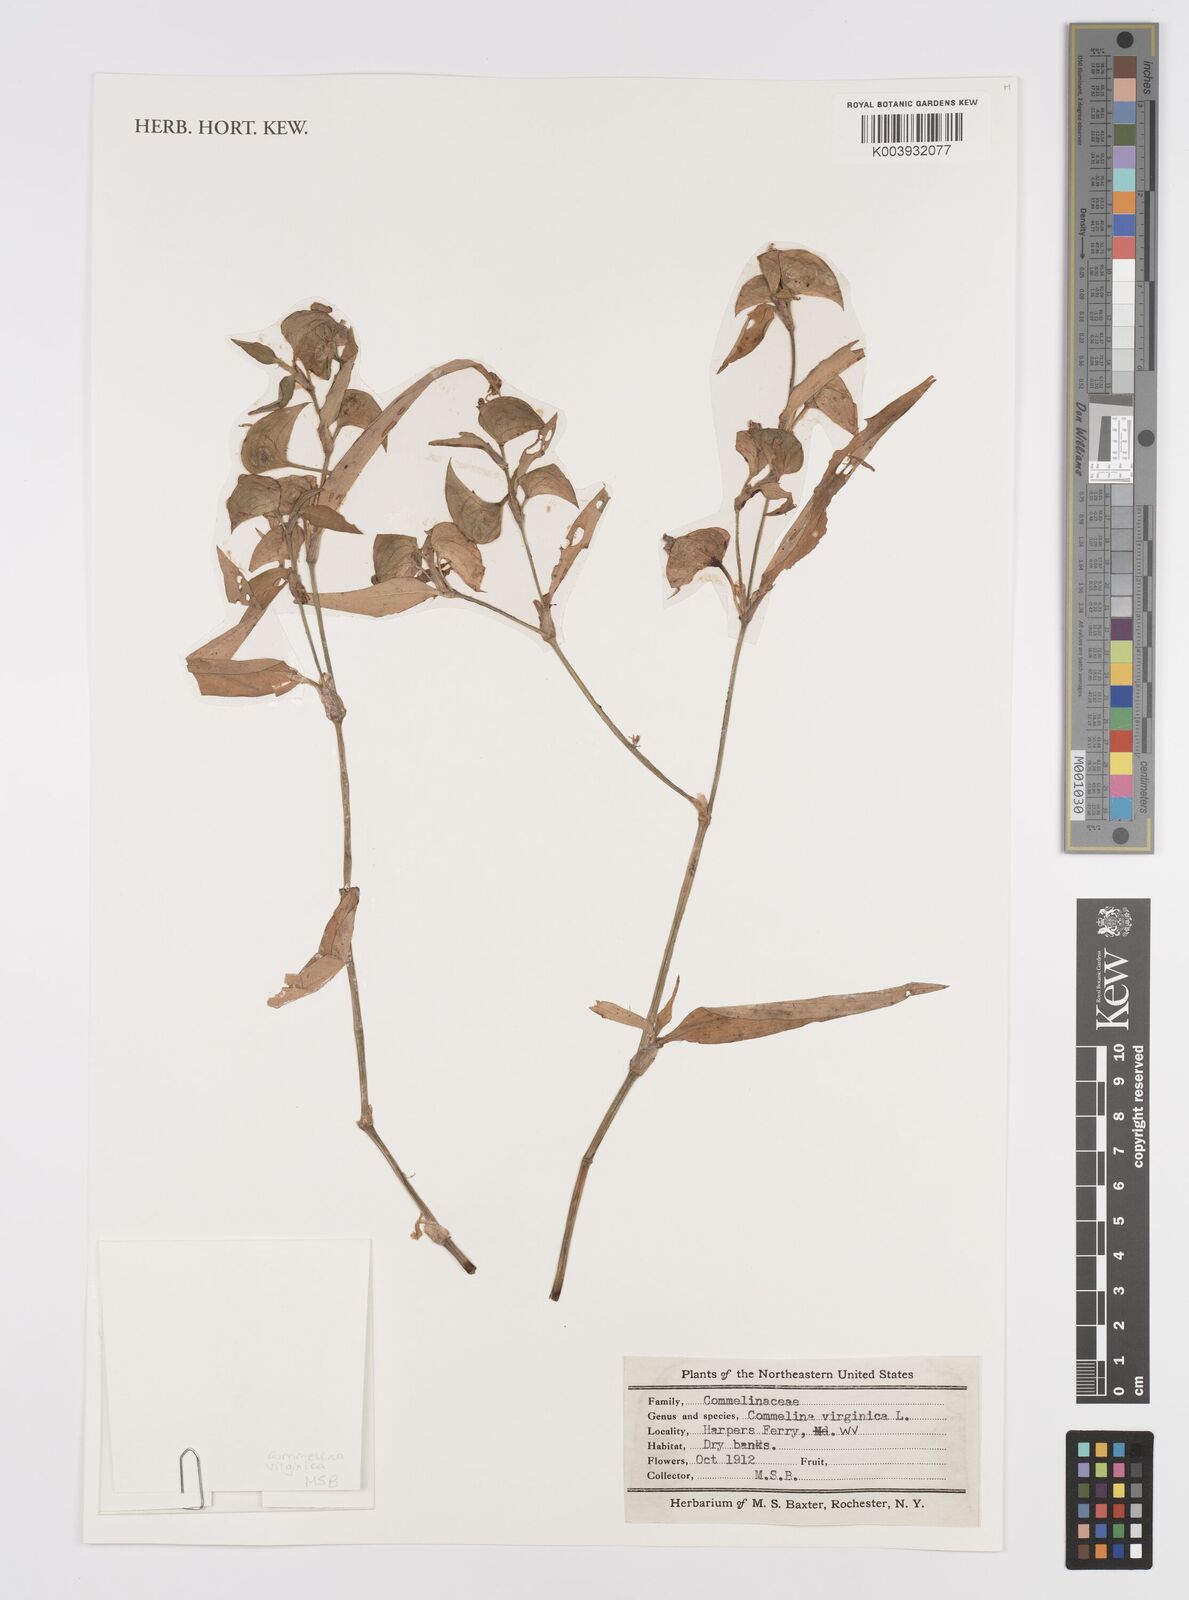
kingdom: Plantae
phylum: Tracheophyta
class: Liliopsida
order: Commelinales
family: Commelinaceae
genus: Commelina
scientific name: Commelina virginica
